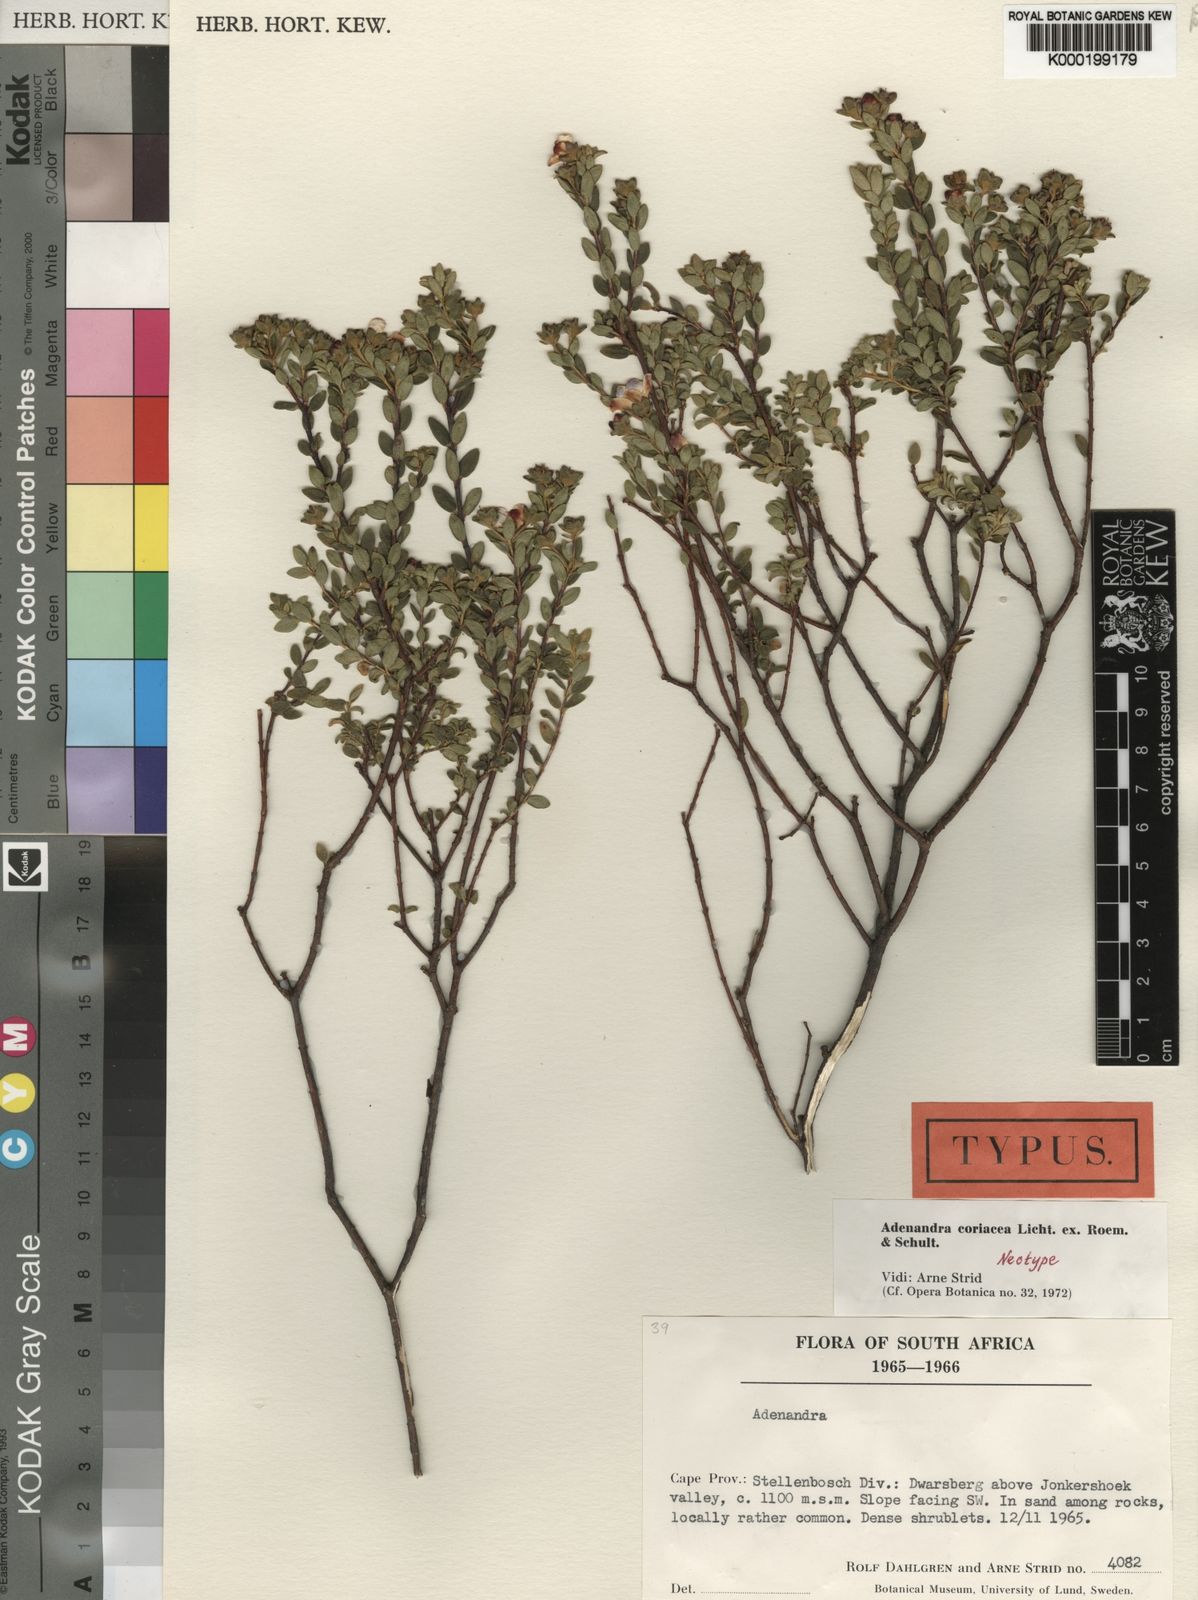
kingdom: Plantae
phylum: Tracheophyta
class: Magnoliopsida
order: Sapindales
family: Rutaceae
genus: Adenandra
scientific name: Adenandra coriacea
